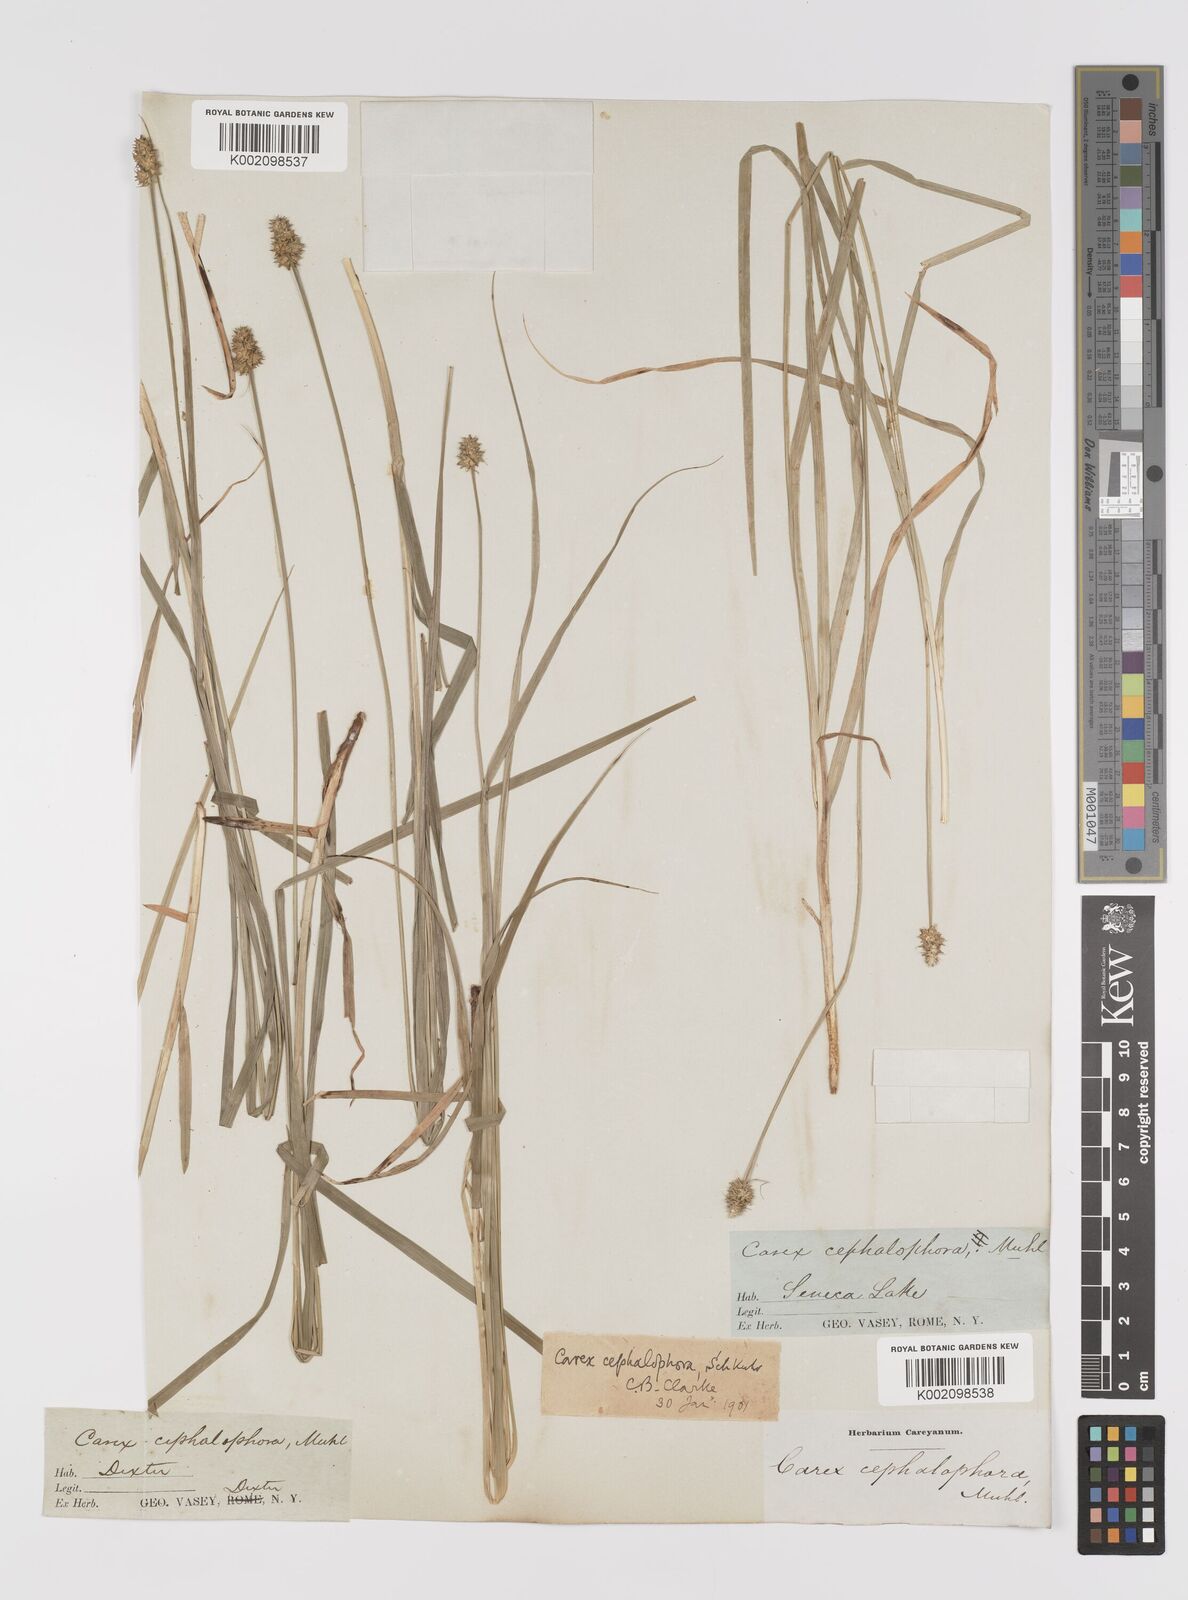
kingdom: Plantae
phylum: Tracheophyta
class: Liliopsida
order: Poales
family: Cyperaceae
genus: Carex
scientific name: Carex cephalophora
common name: Oval-headed sedge
